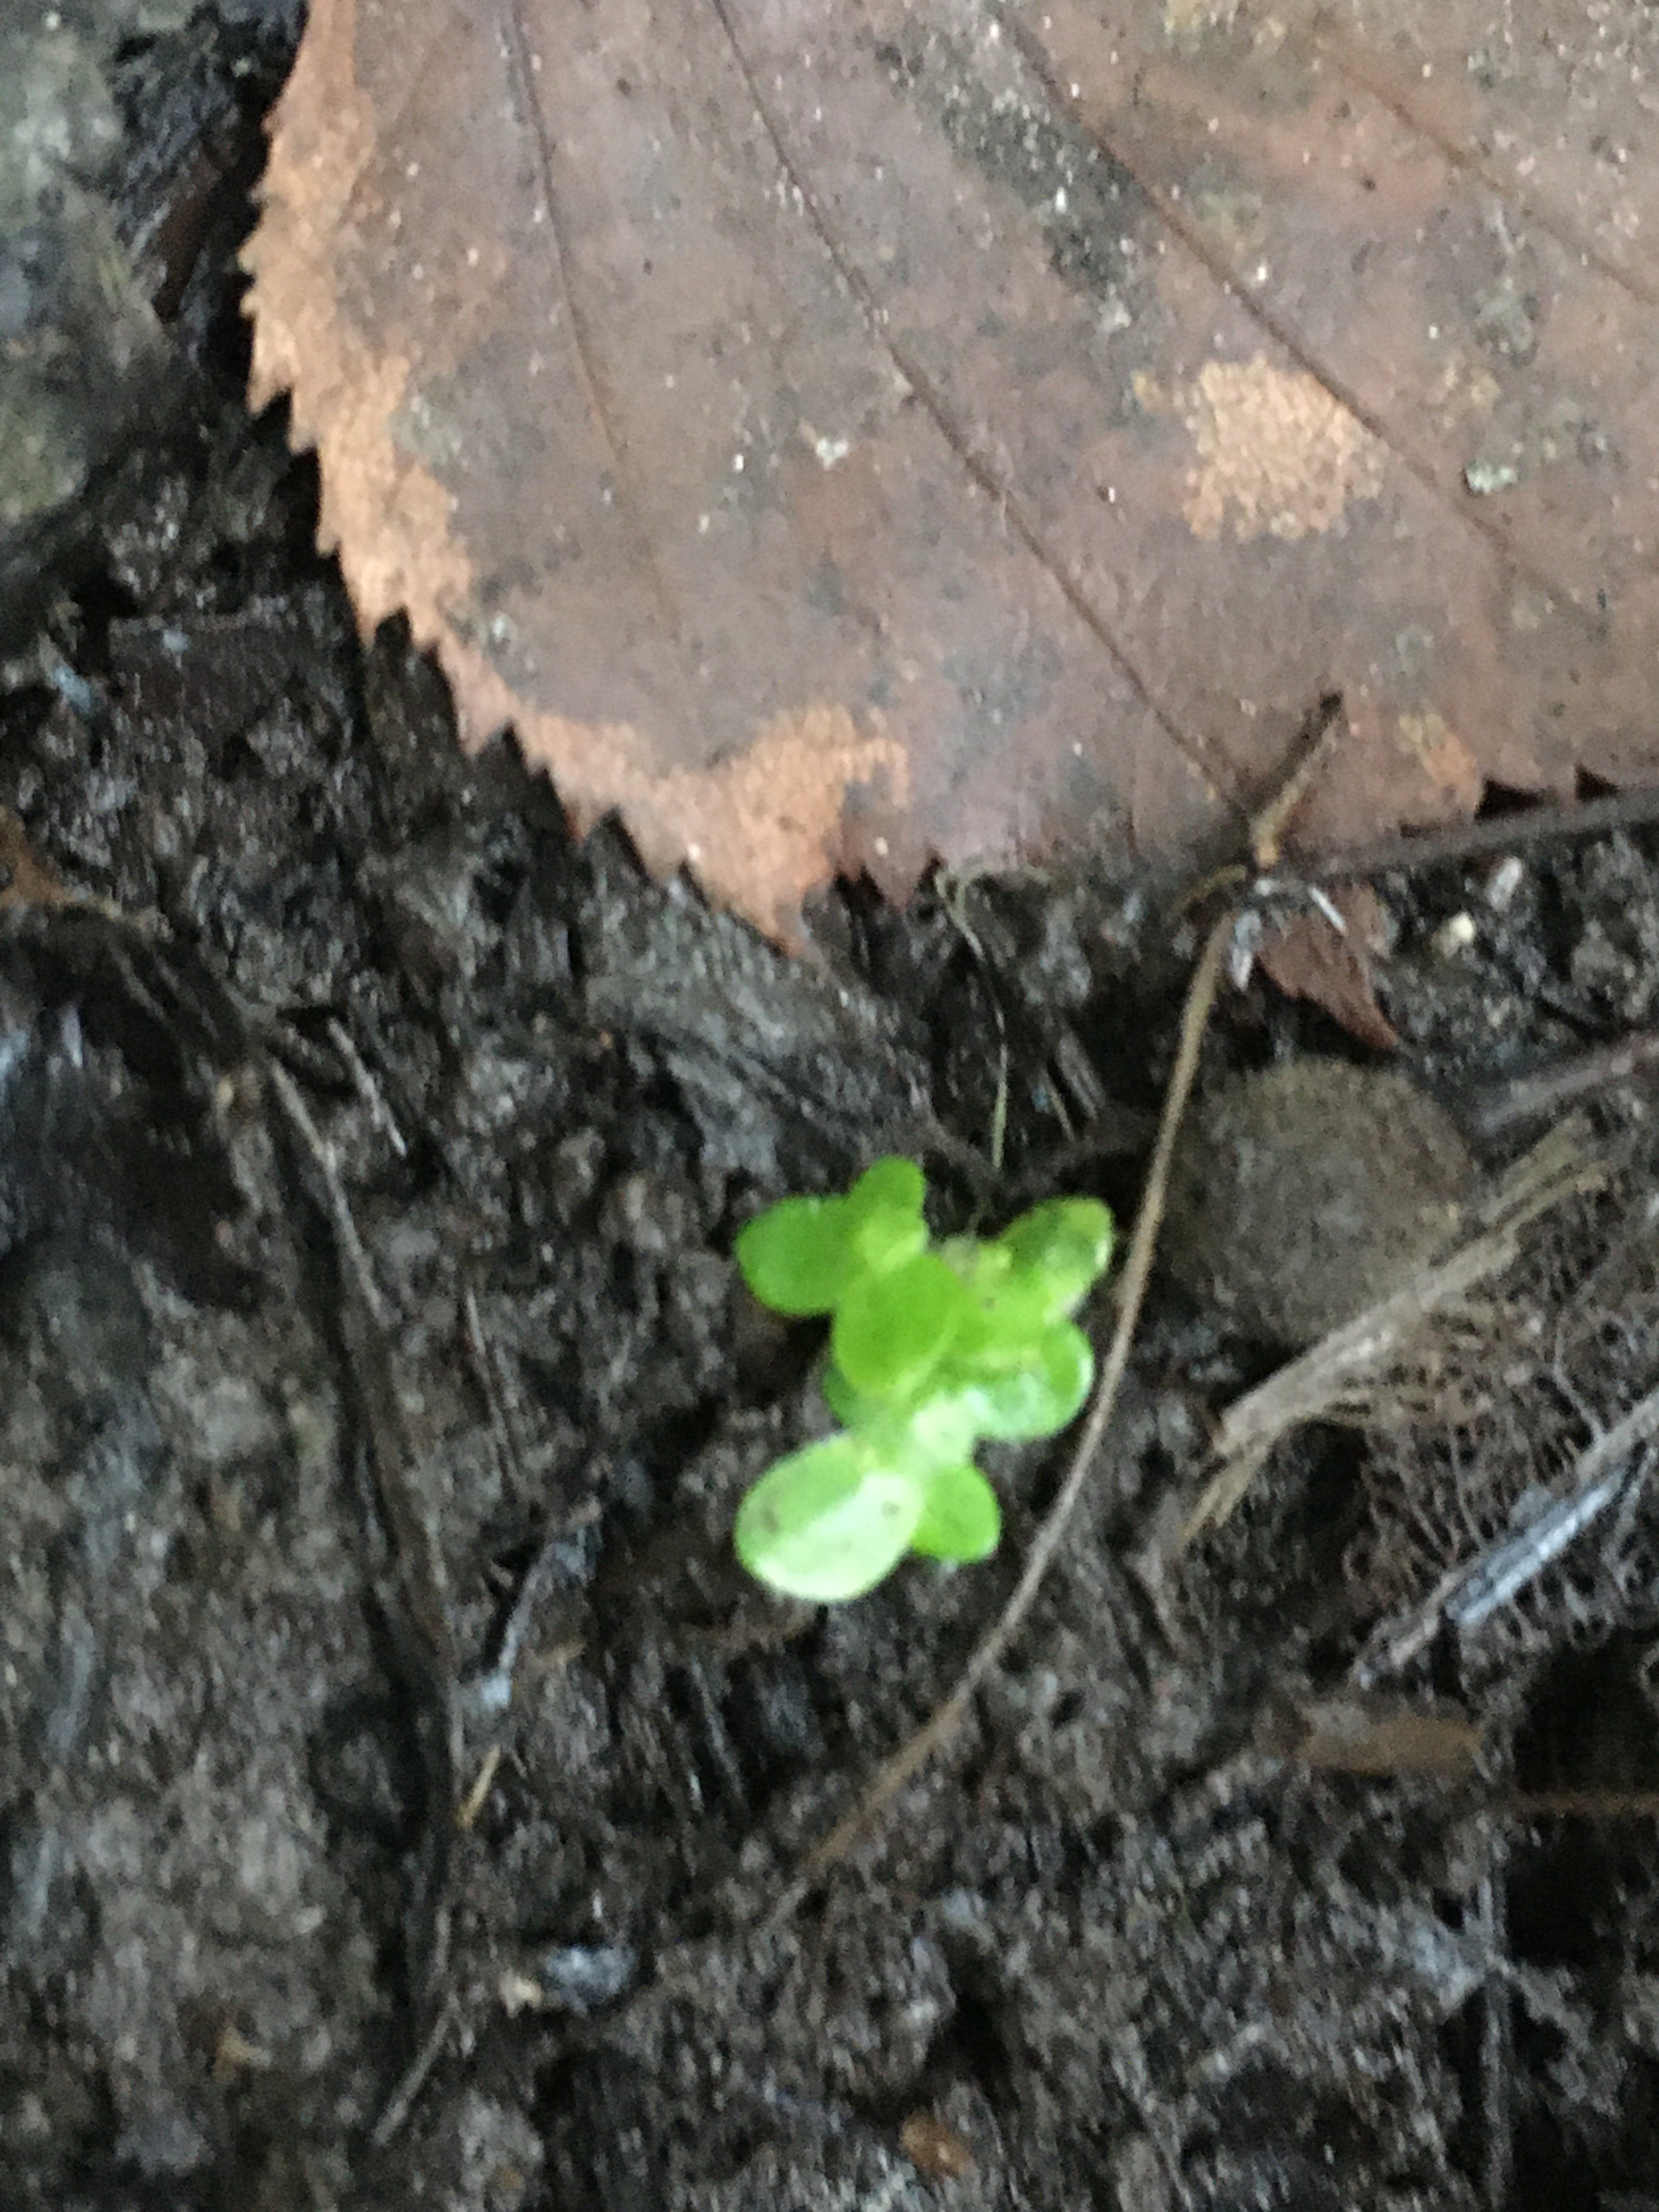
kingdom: Plantae
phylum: Tracheophyta
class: Liliopsida
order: Alismatales
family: Araceae
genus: Lemna
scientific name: Lemna minor
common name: Liden andemad
